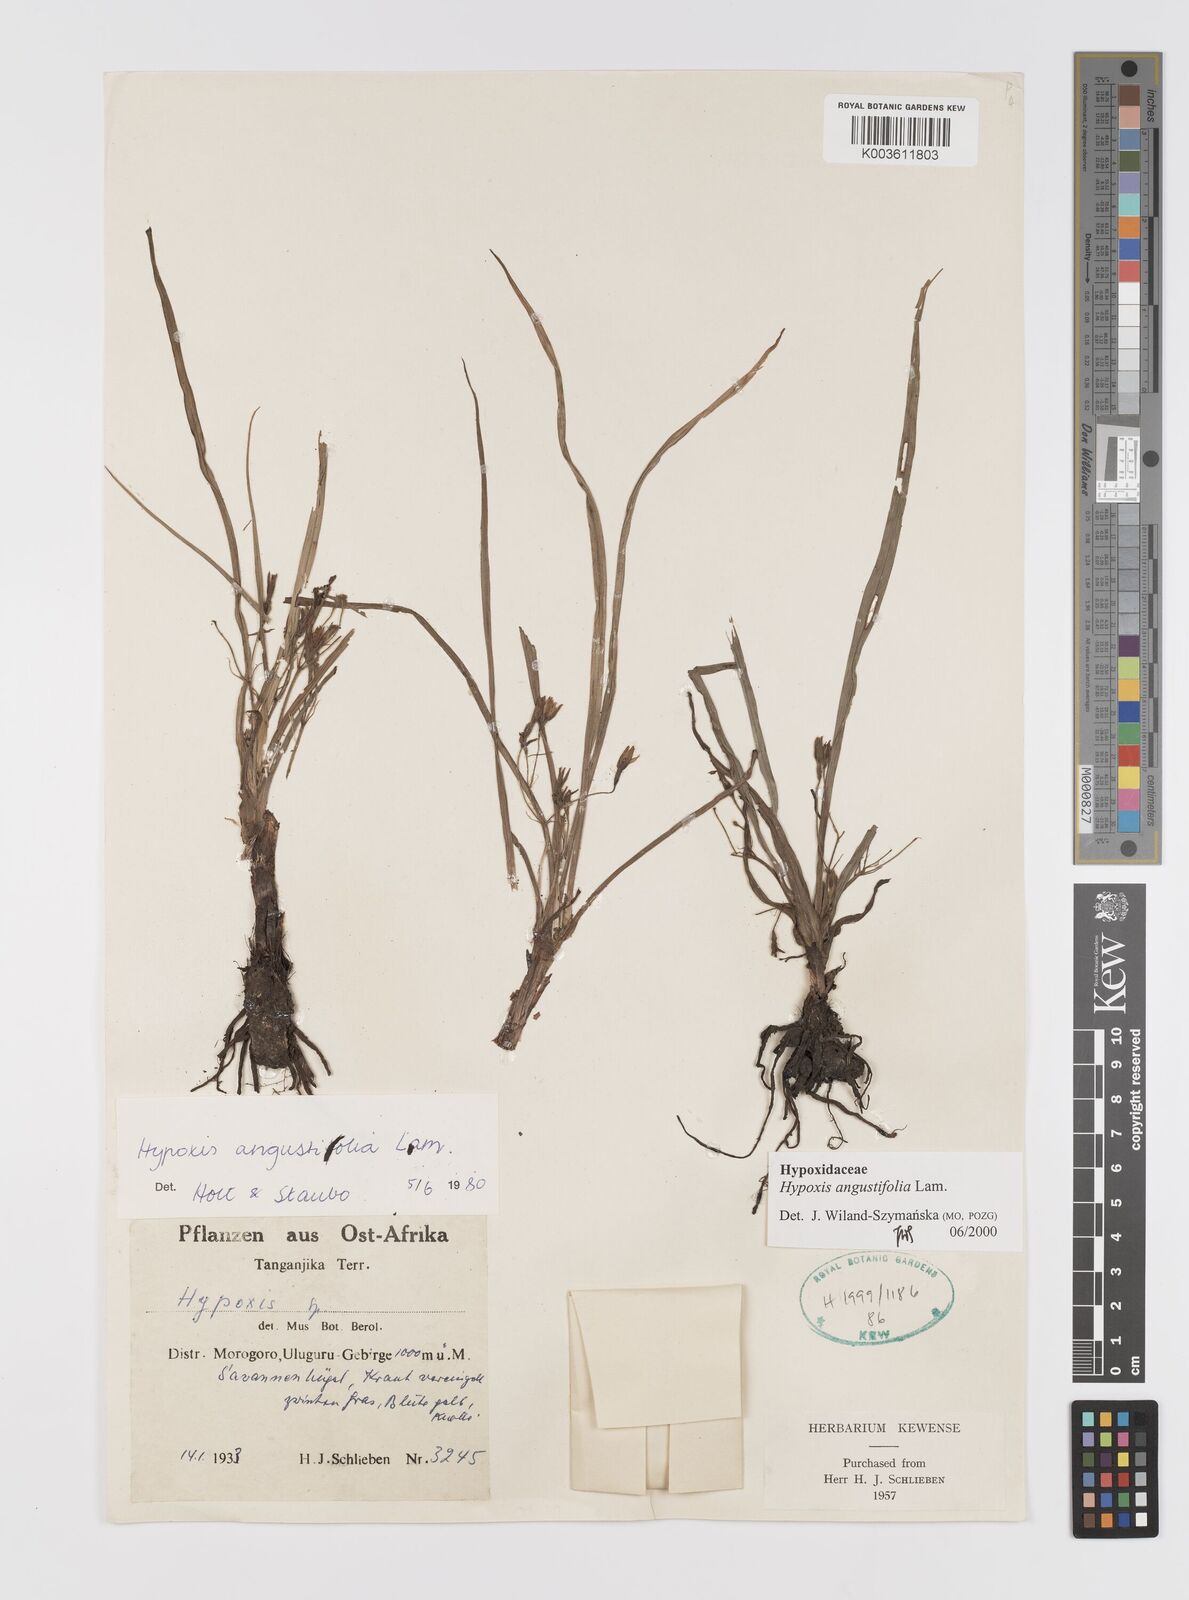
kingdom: Plantae
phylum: Tracheophyta
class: Liliopsida
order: Asparagales
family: Hypoxidaceae
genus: Hypoxis
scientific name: Hypoxis angustifolia
